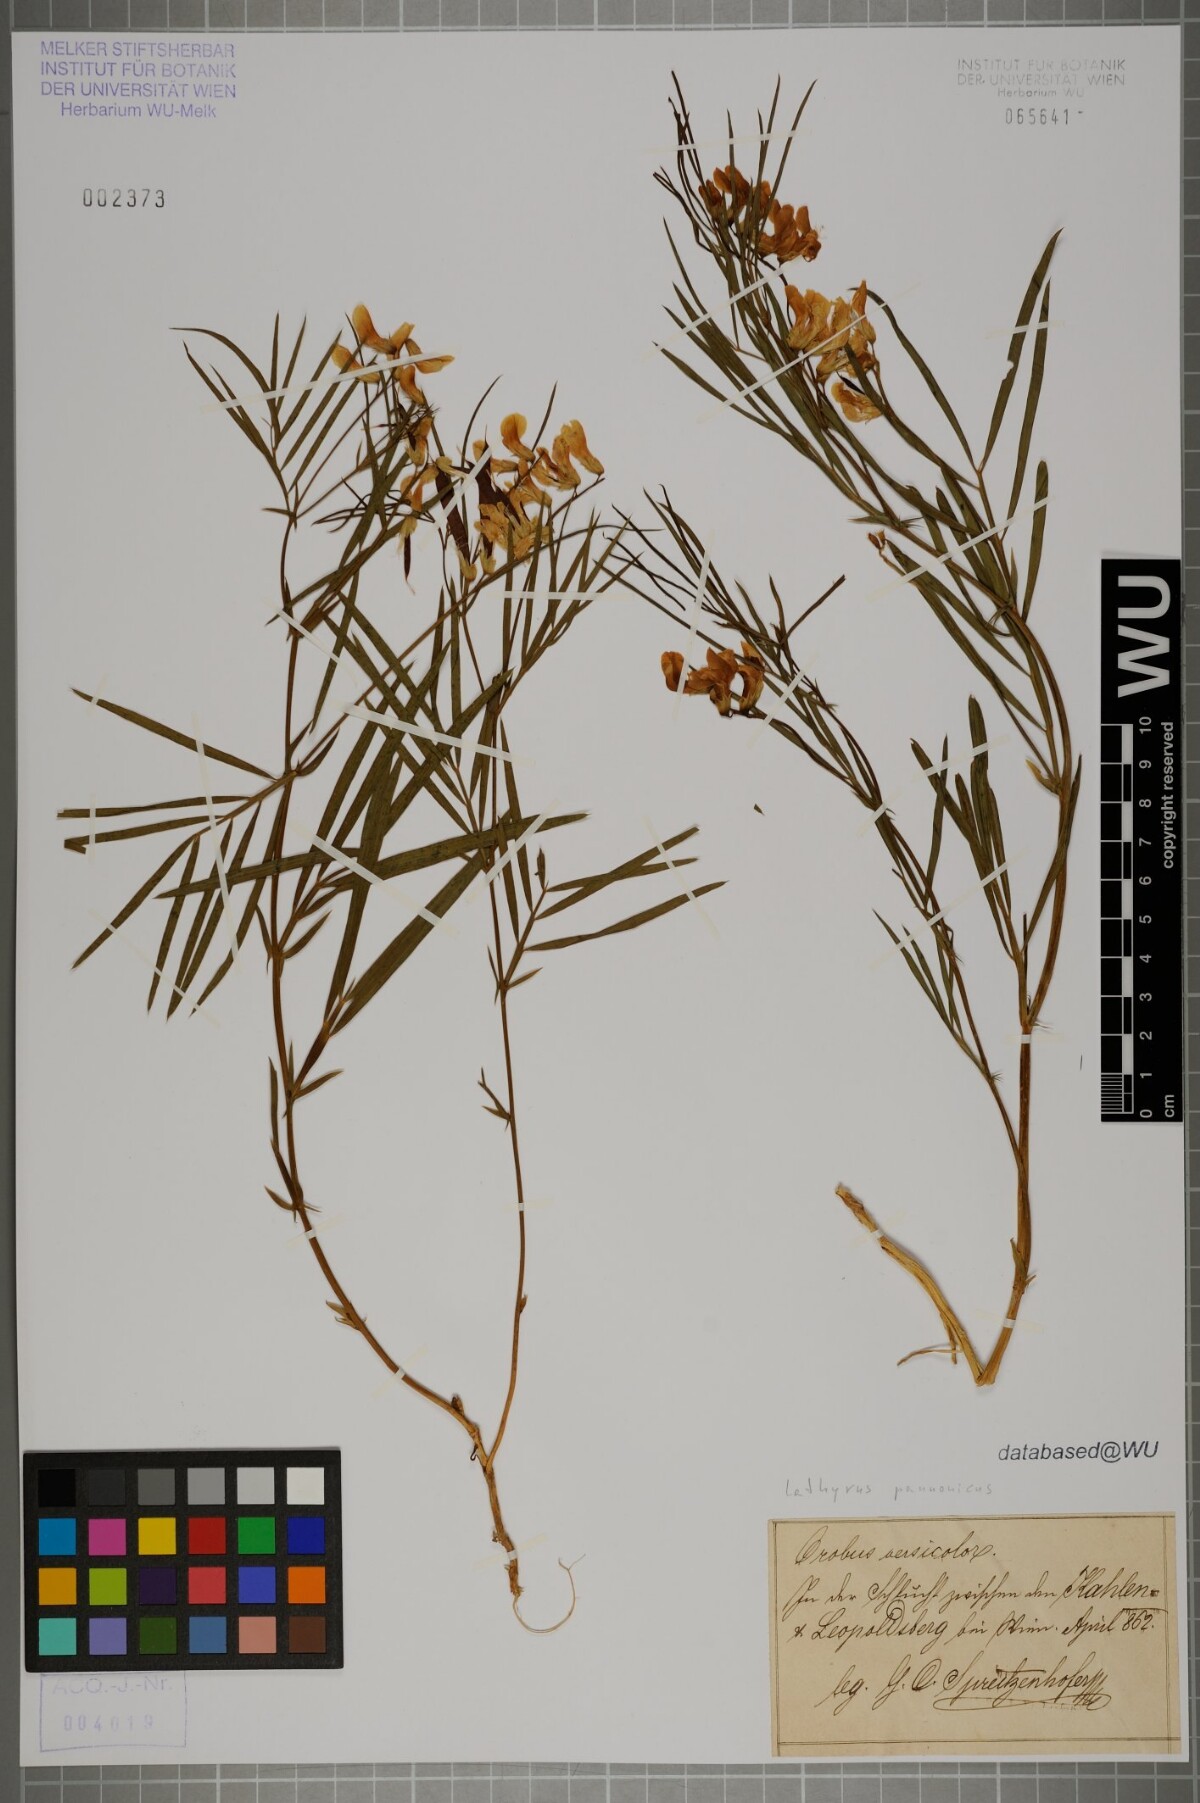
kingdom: Plantae
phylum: Tracheophyta
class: Magnoliopsida
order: Fabales
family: Fabaceae
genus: Lathyrus
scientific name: Lathyrus pannonicus
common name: Pea
